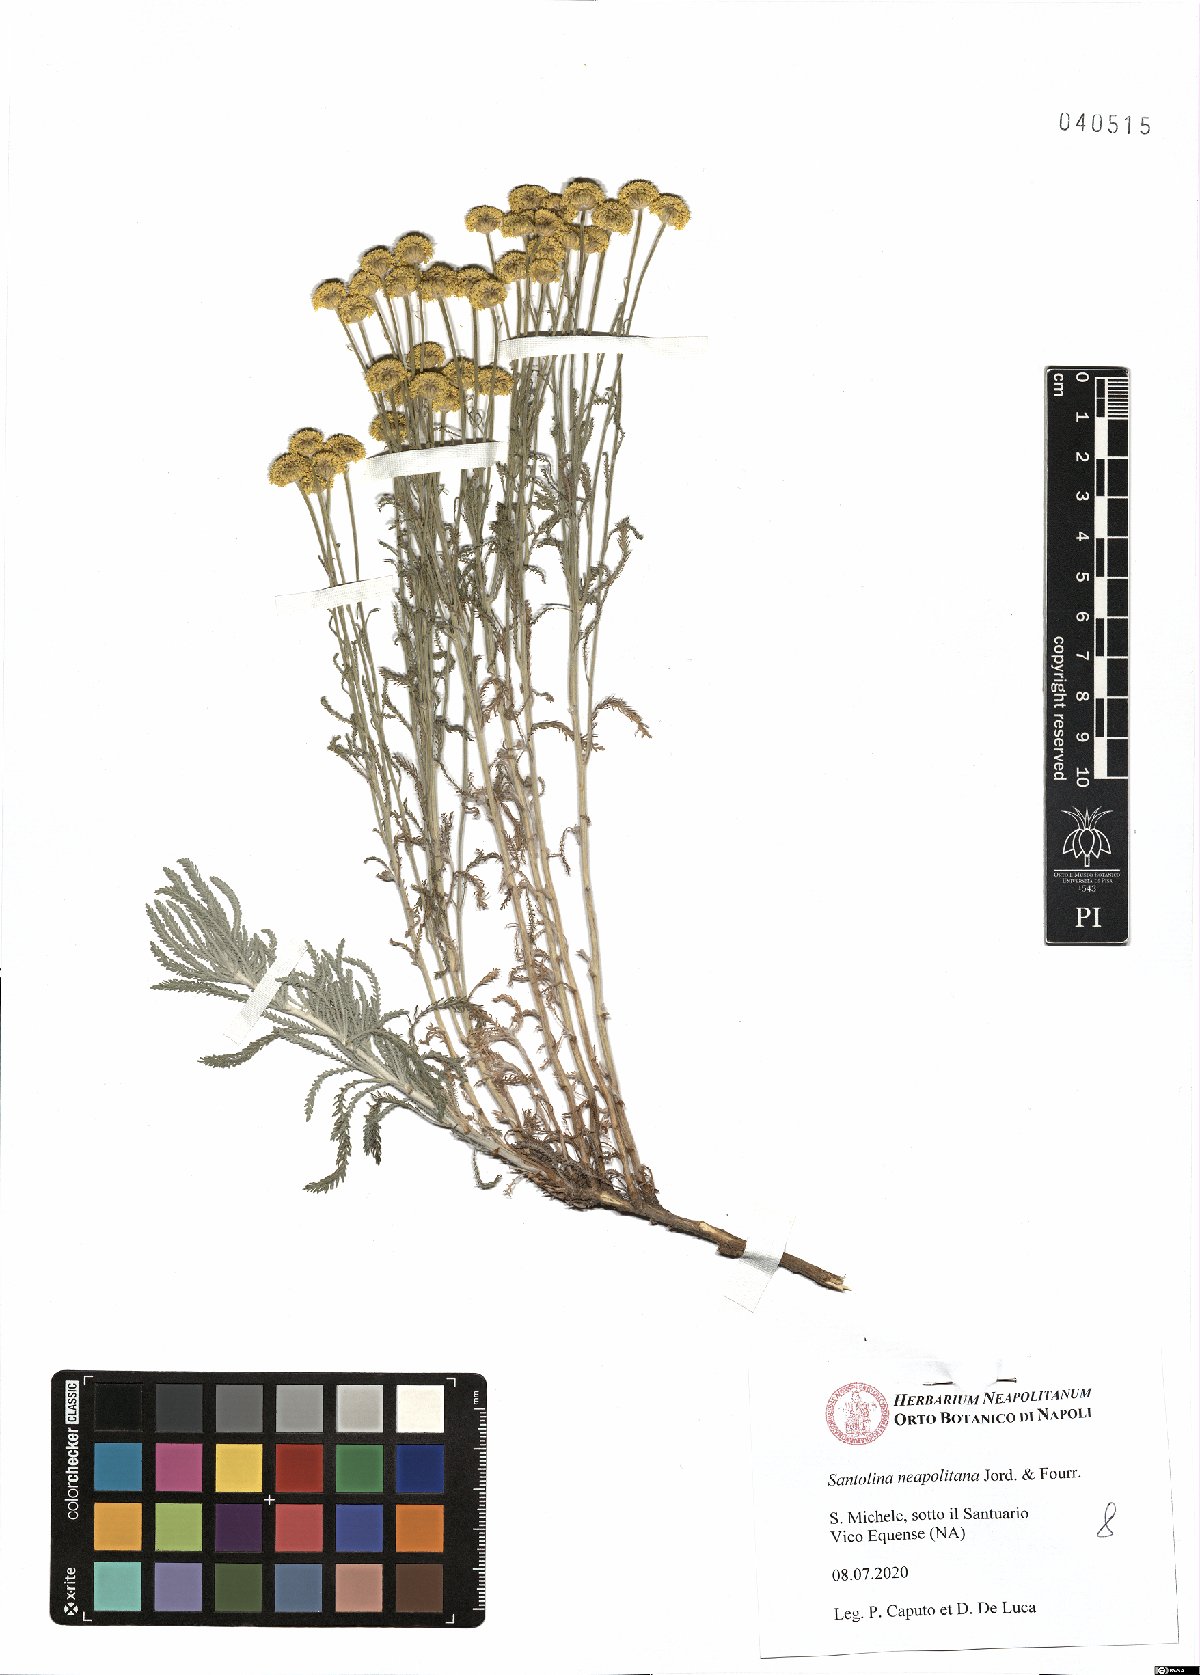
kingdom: Plantae
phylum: Tracheophyta
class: Magnoliopsida
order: Asterales
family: Asteraceae
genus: Santolina
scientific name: Santolina neapolitana
